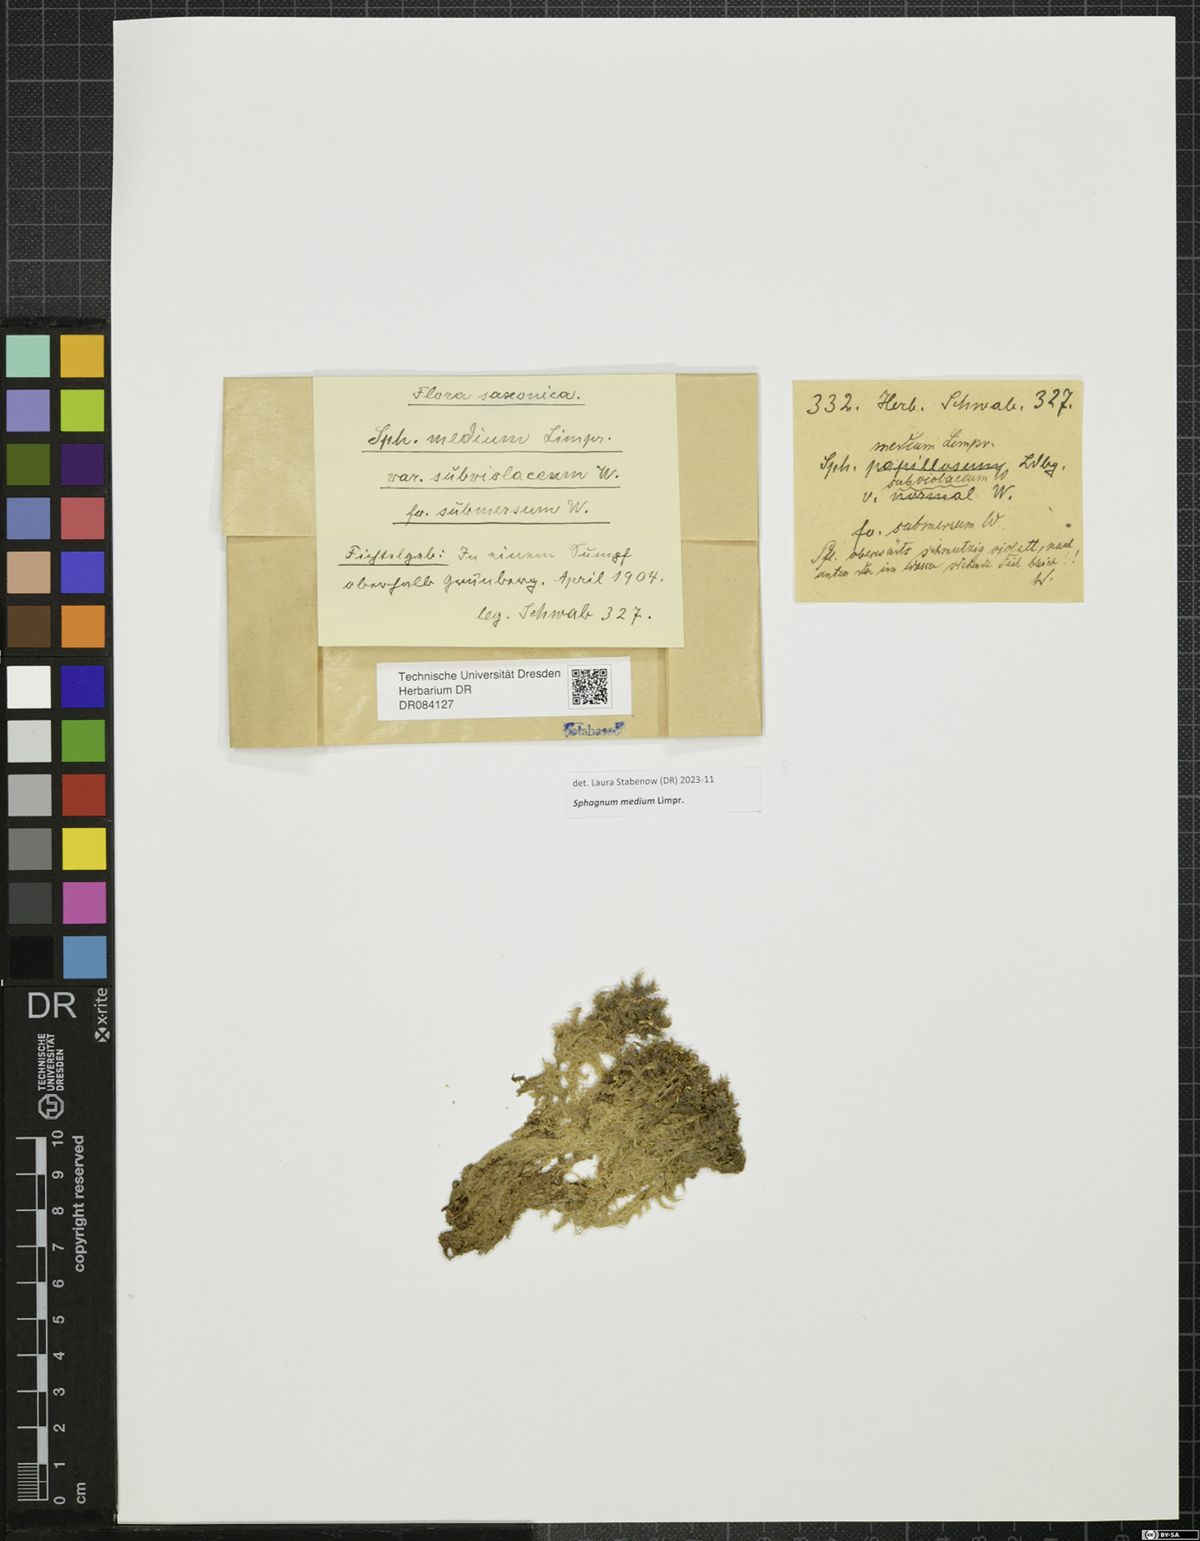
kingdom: Plantae
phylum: Bryophyta
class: Sphagnopsida
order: Sphagnales
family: Sphagnaceae
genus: Sphagnum
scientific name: Sphagnum medium
